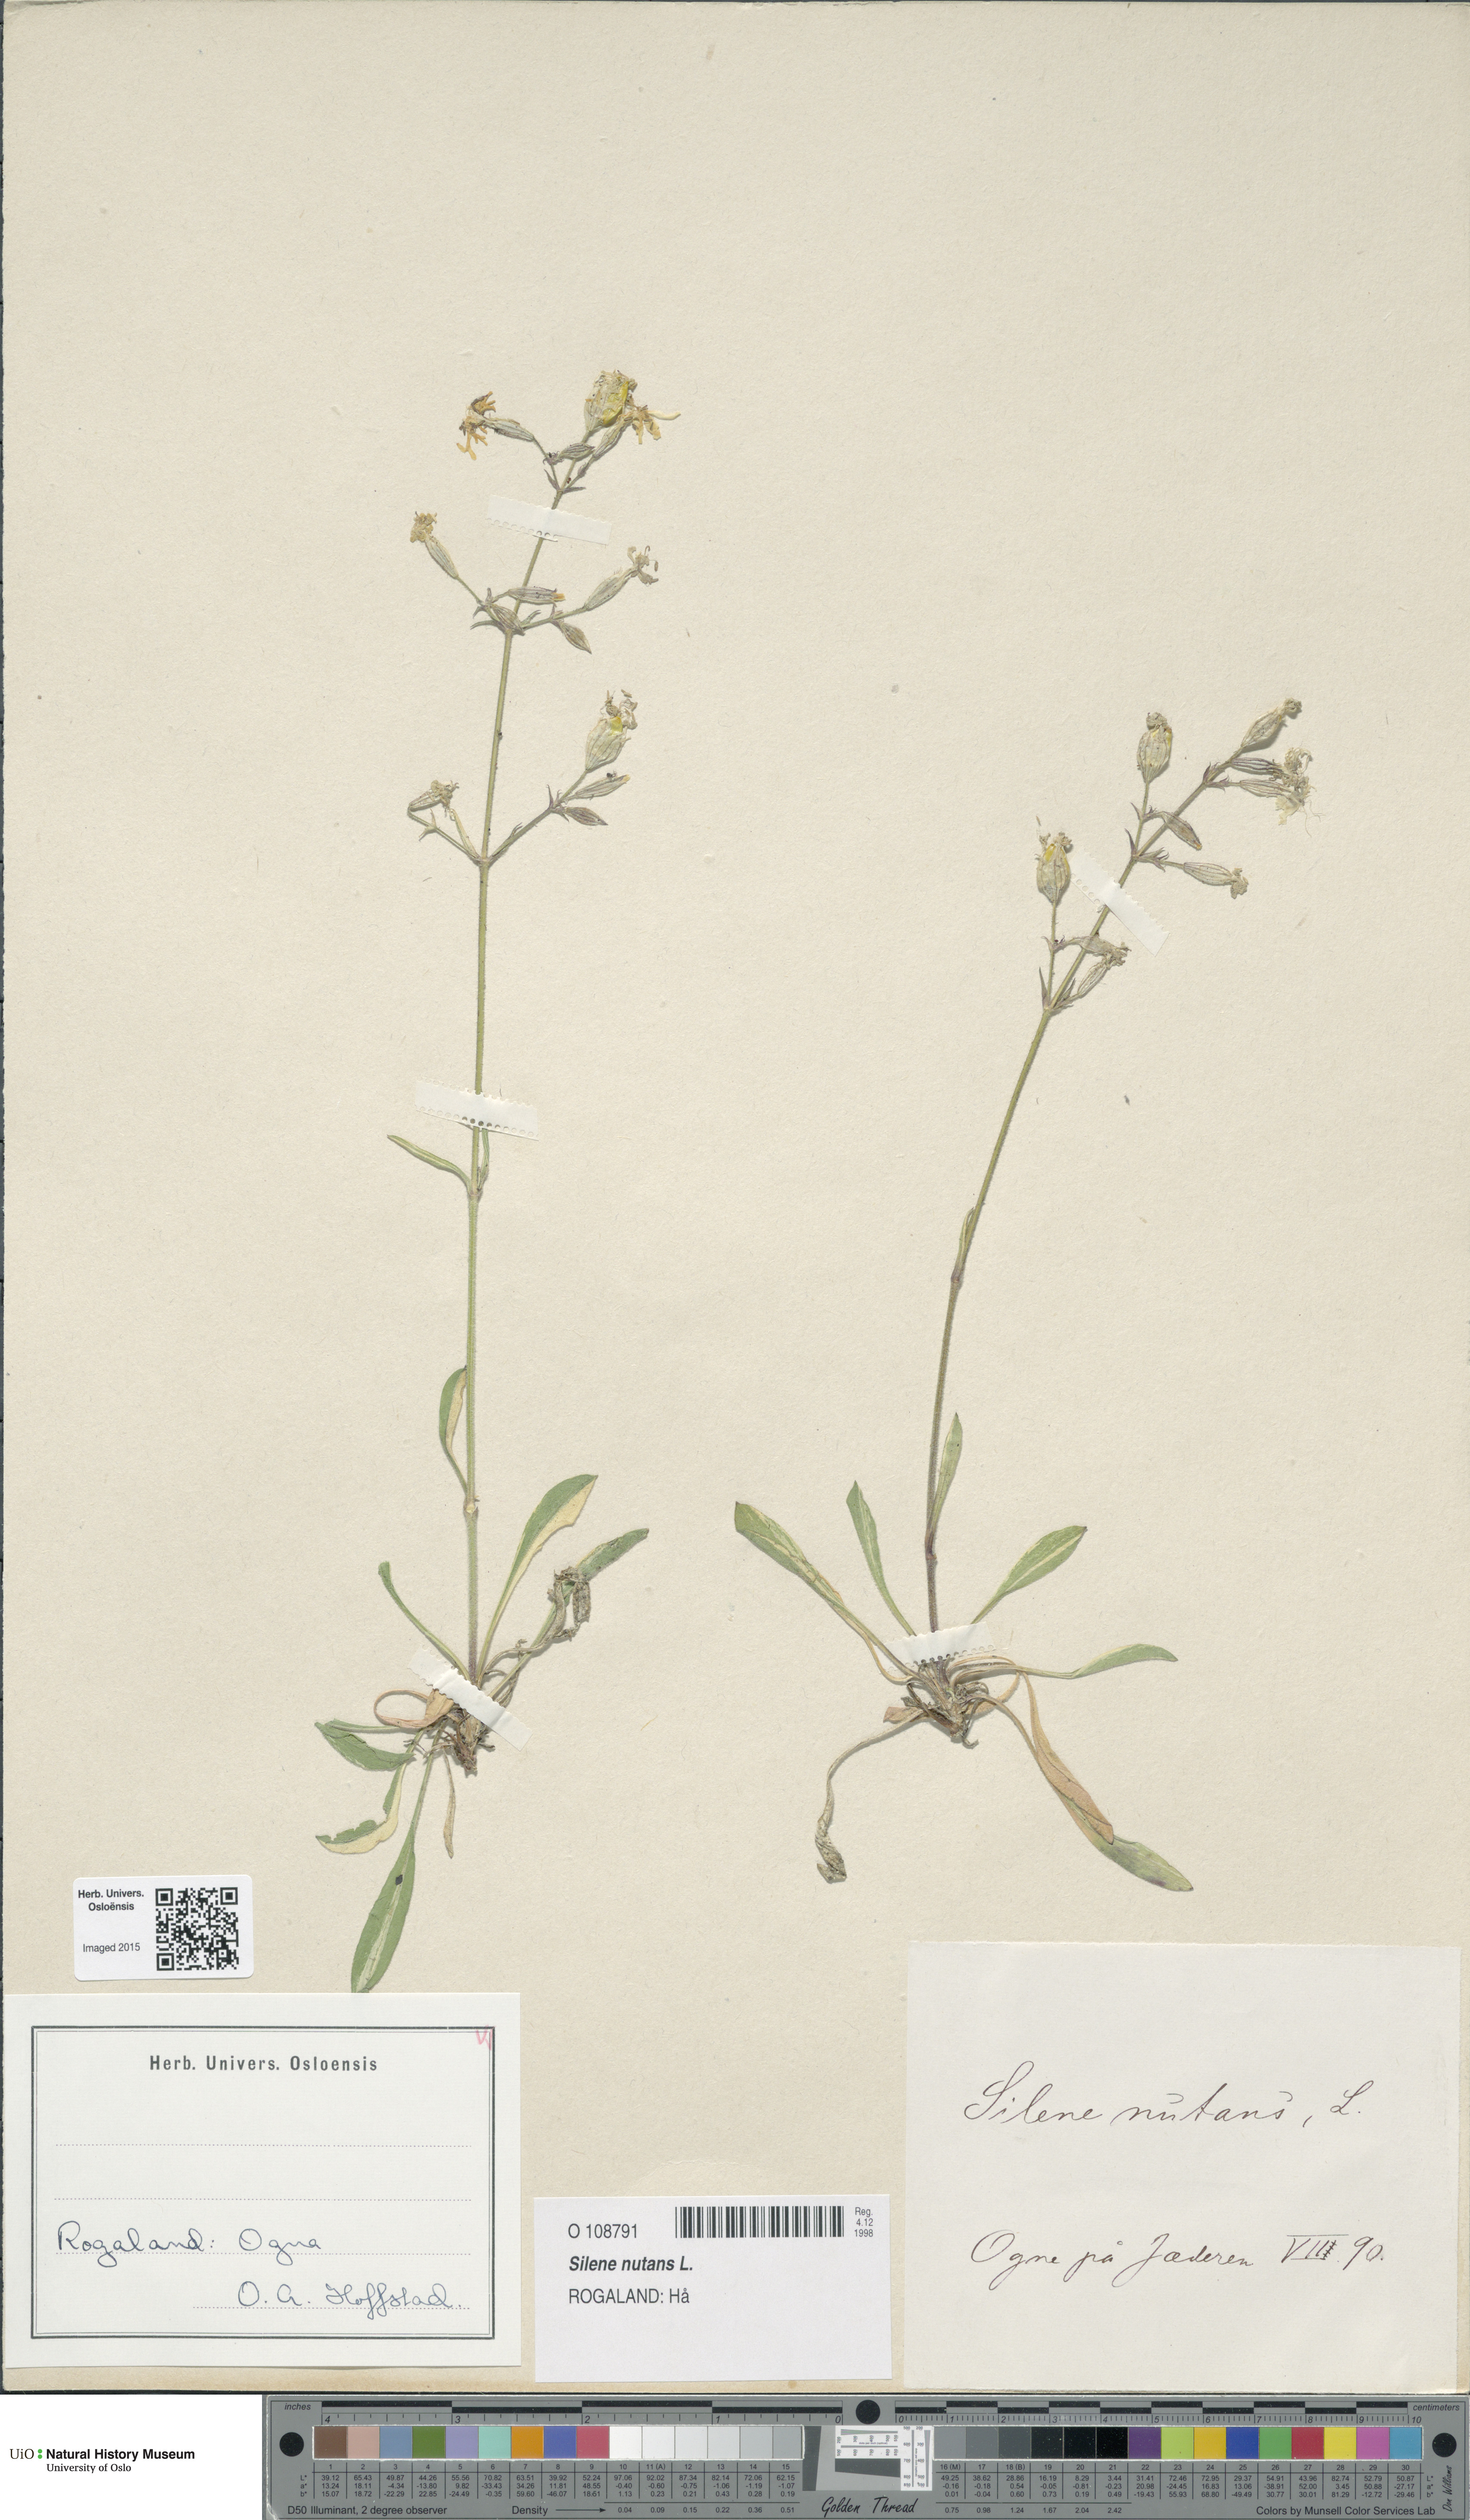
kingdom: Plantae
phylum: Tracheophyta
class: Magnoliopsida
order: Caryophyllales
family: Caryophyllaceae
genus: Silene
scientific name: Silene nutans
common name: Nottingham catchfly
